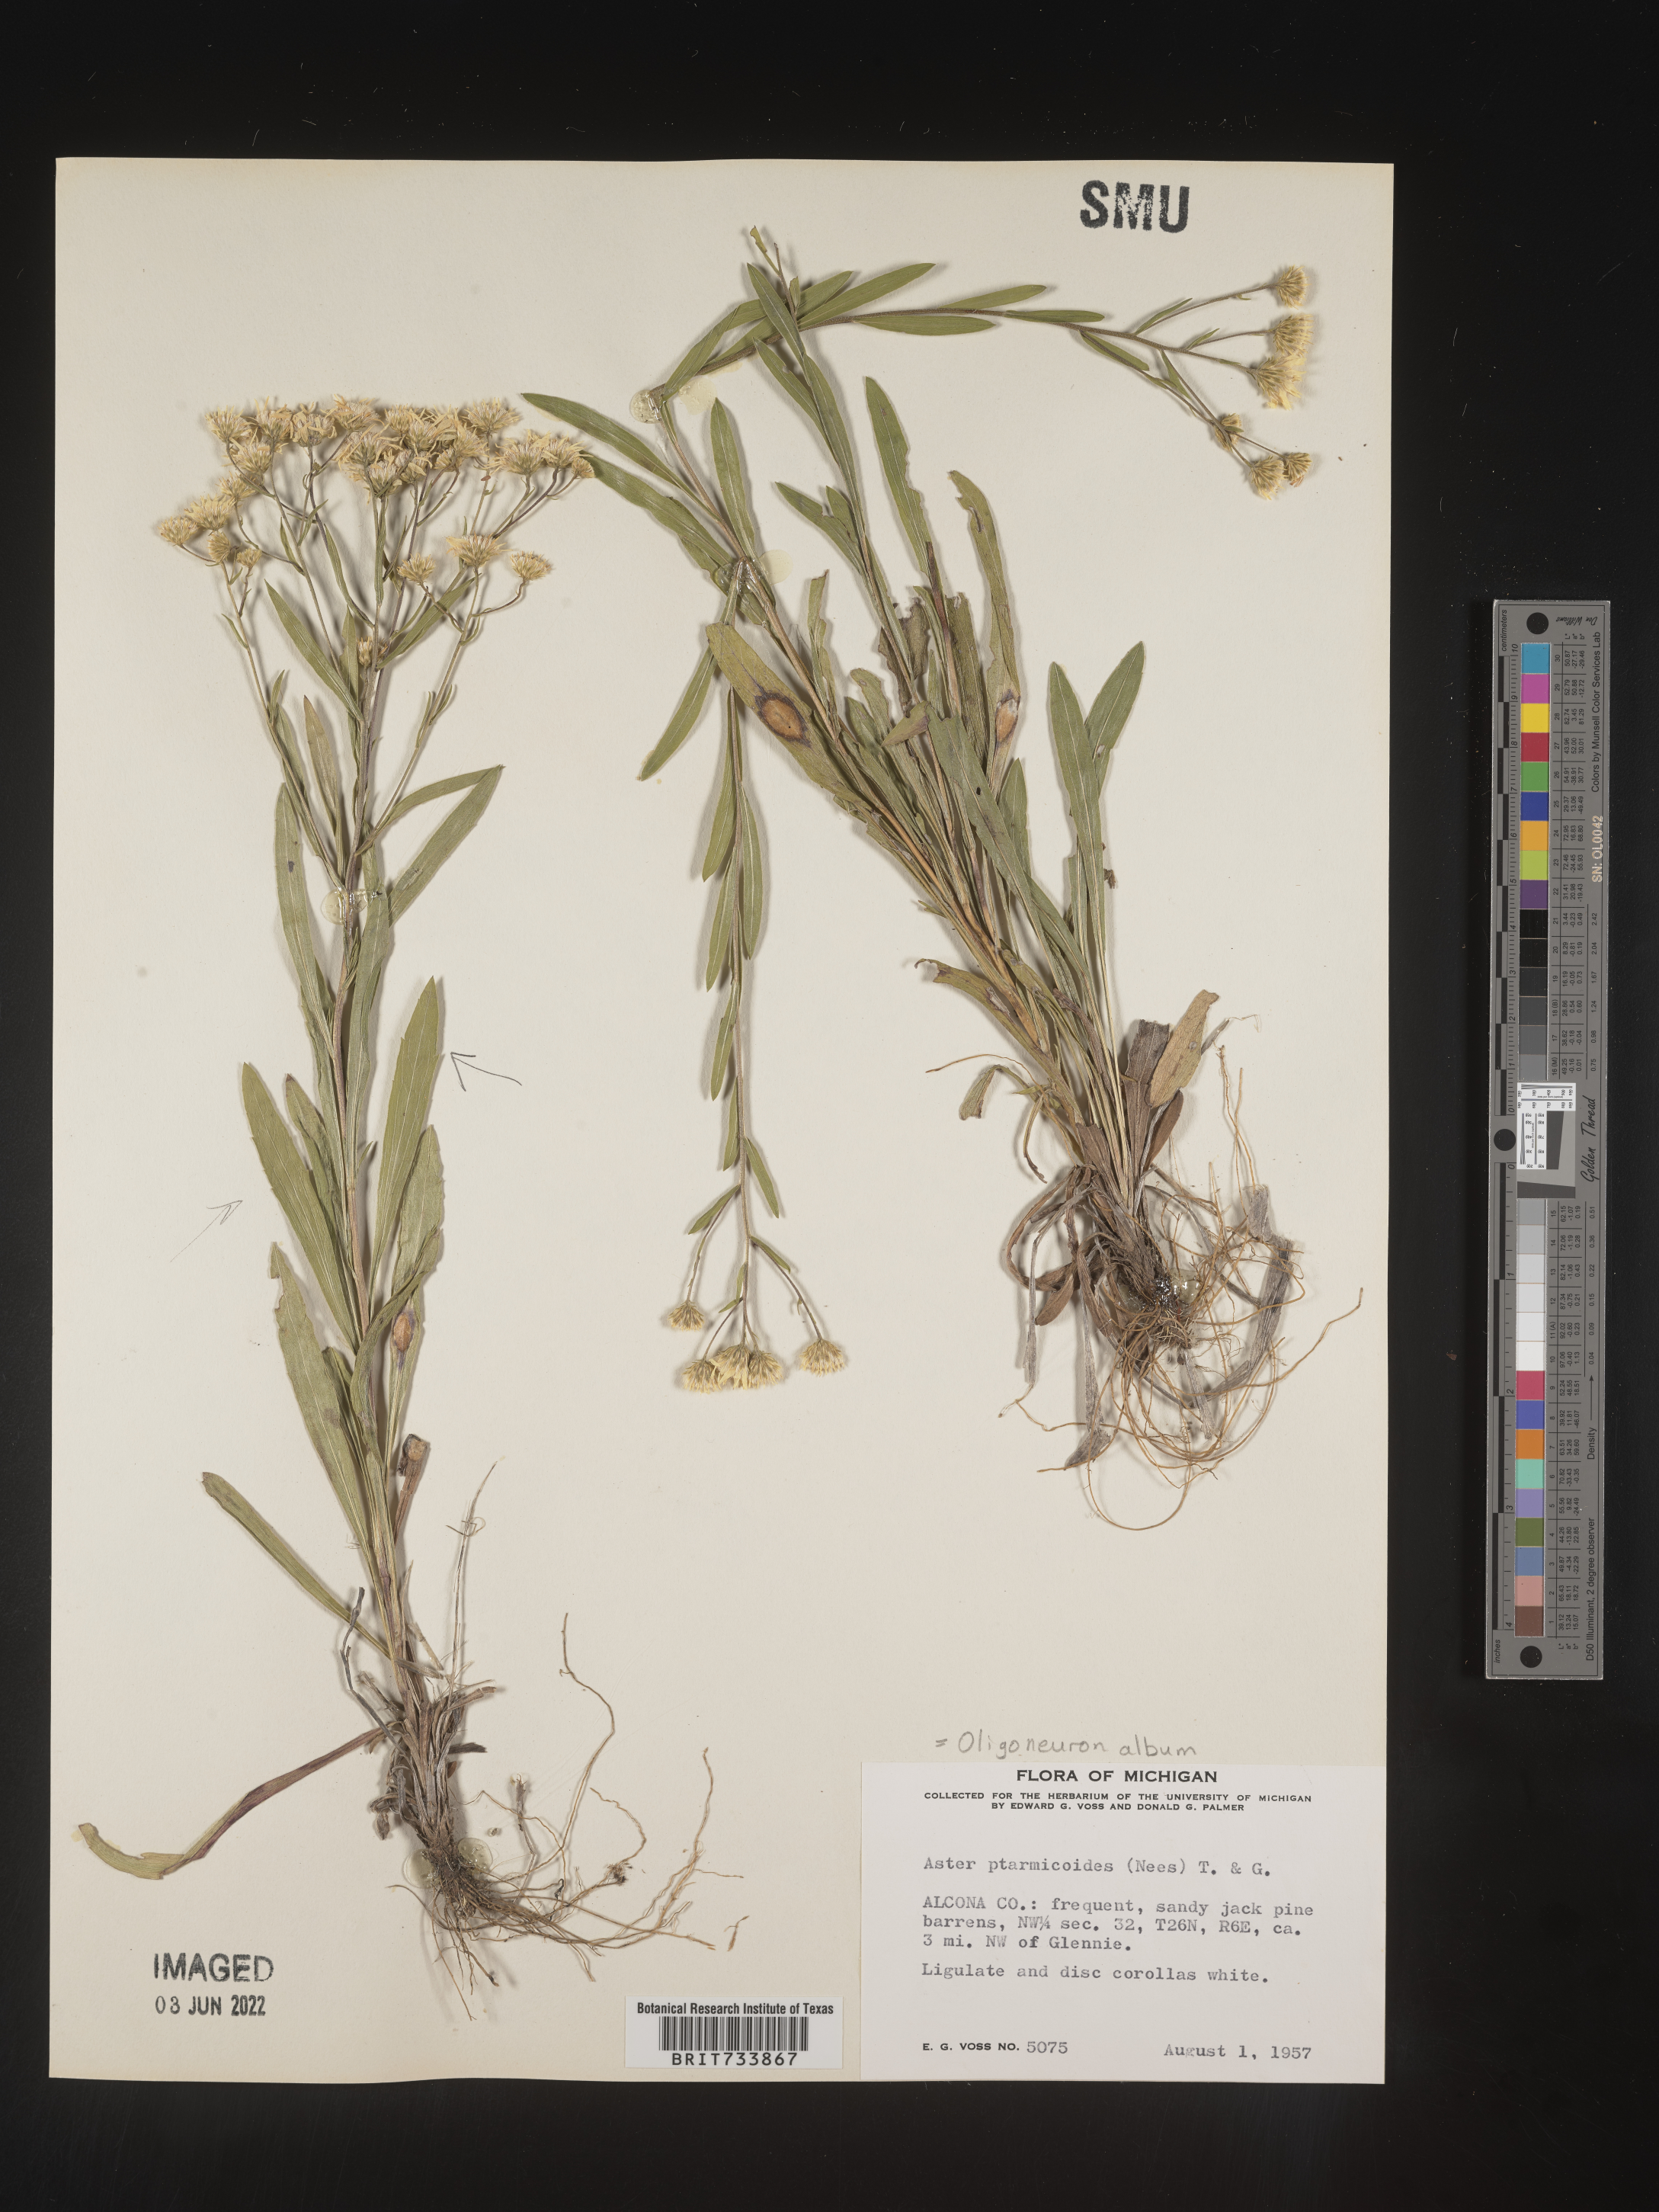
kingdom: Plantae
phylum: Tracheophyta
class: Magnoliopsida
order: Asterales
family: Asteraceae
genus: Solidago
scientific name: Solidago ptarmicoides
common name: White flat-top goldenrod
